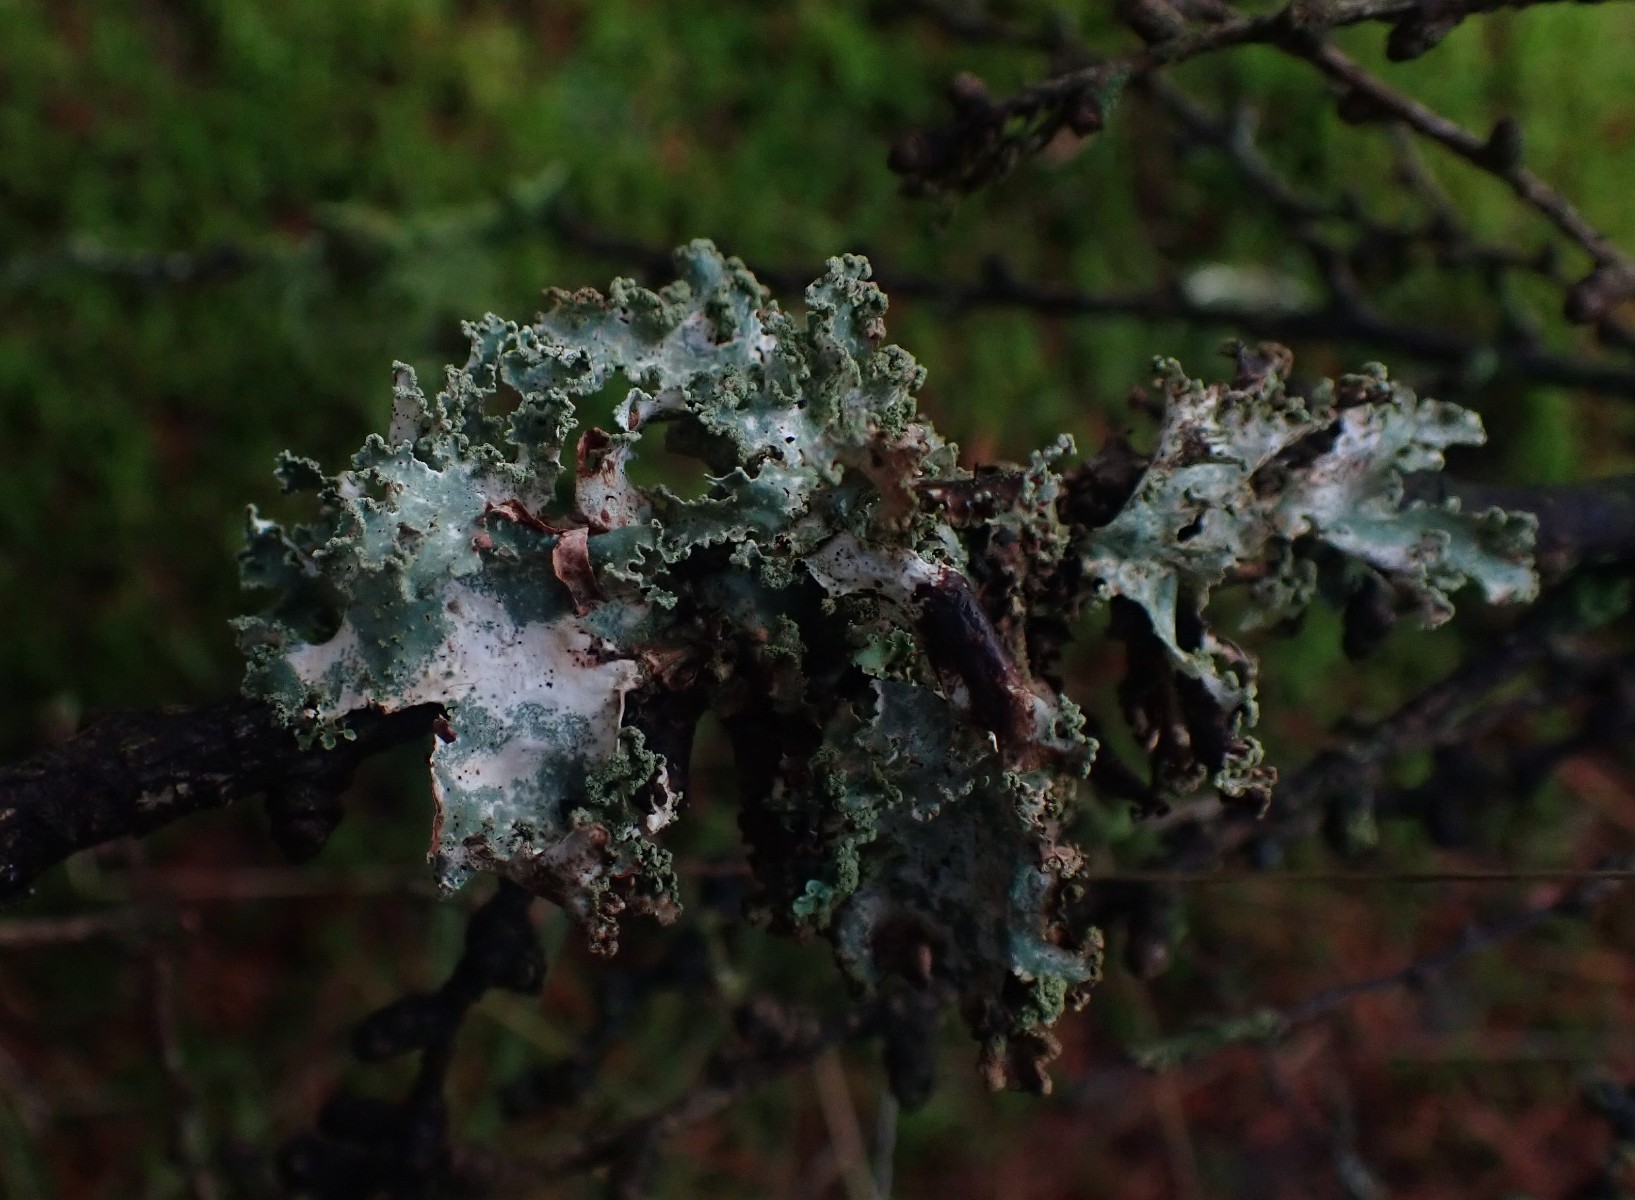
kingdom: Fungi
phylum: Ascomycota
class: Lecanoromycetes
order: Lecanorales
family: Parmeliaceae
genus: Platismatia
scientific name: Platismatia glauca
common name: blågrå papirlav
